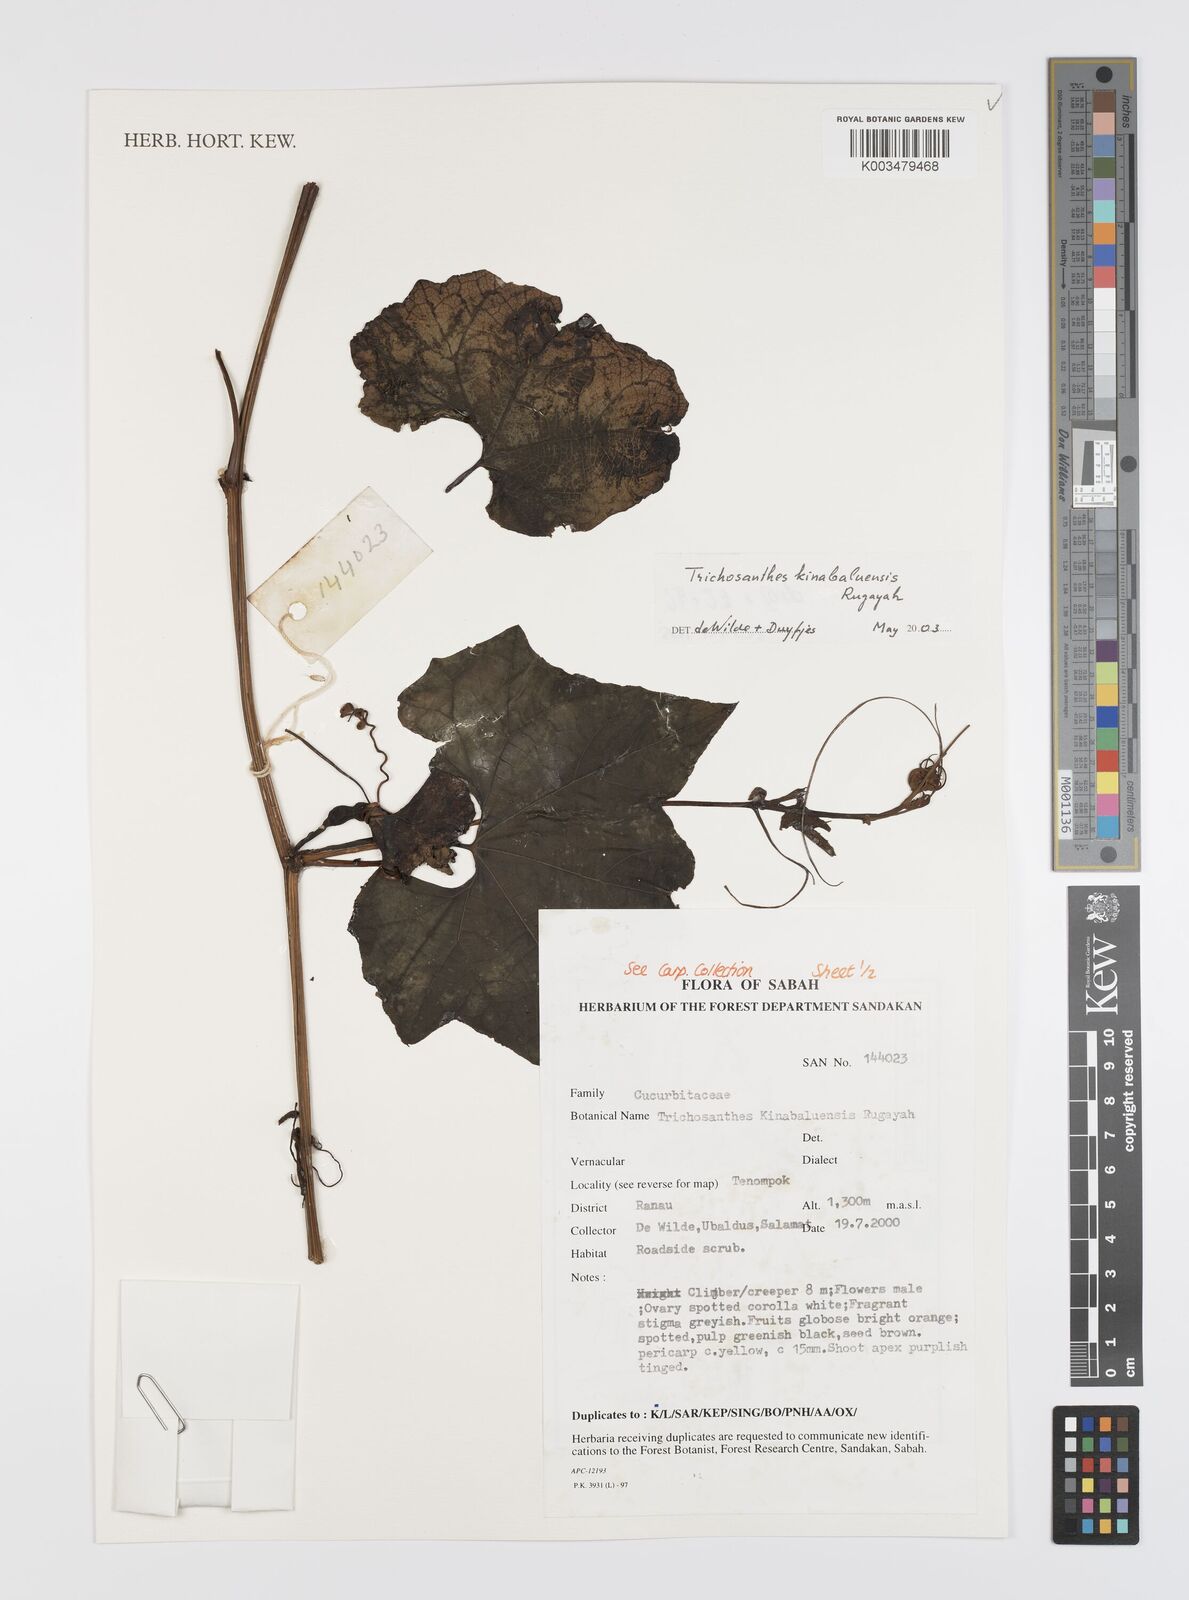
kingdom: Plantae
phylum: Tracheophyta
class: Magnoliopsida
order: Cucurbitales
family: Cucurbitaceae
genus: Trichosanthes
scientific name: Trichosanthes kinabaluensis
